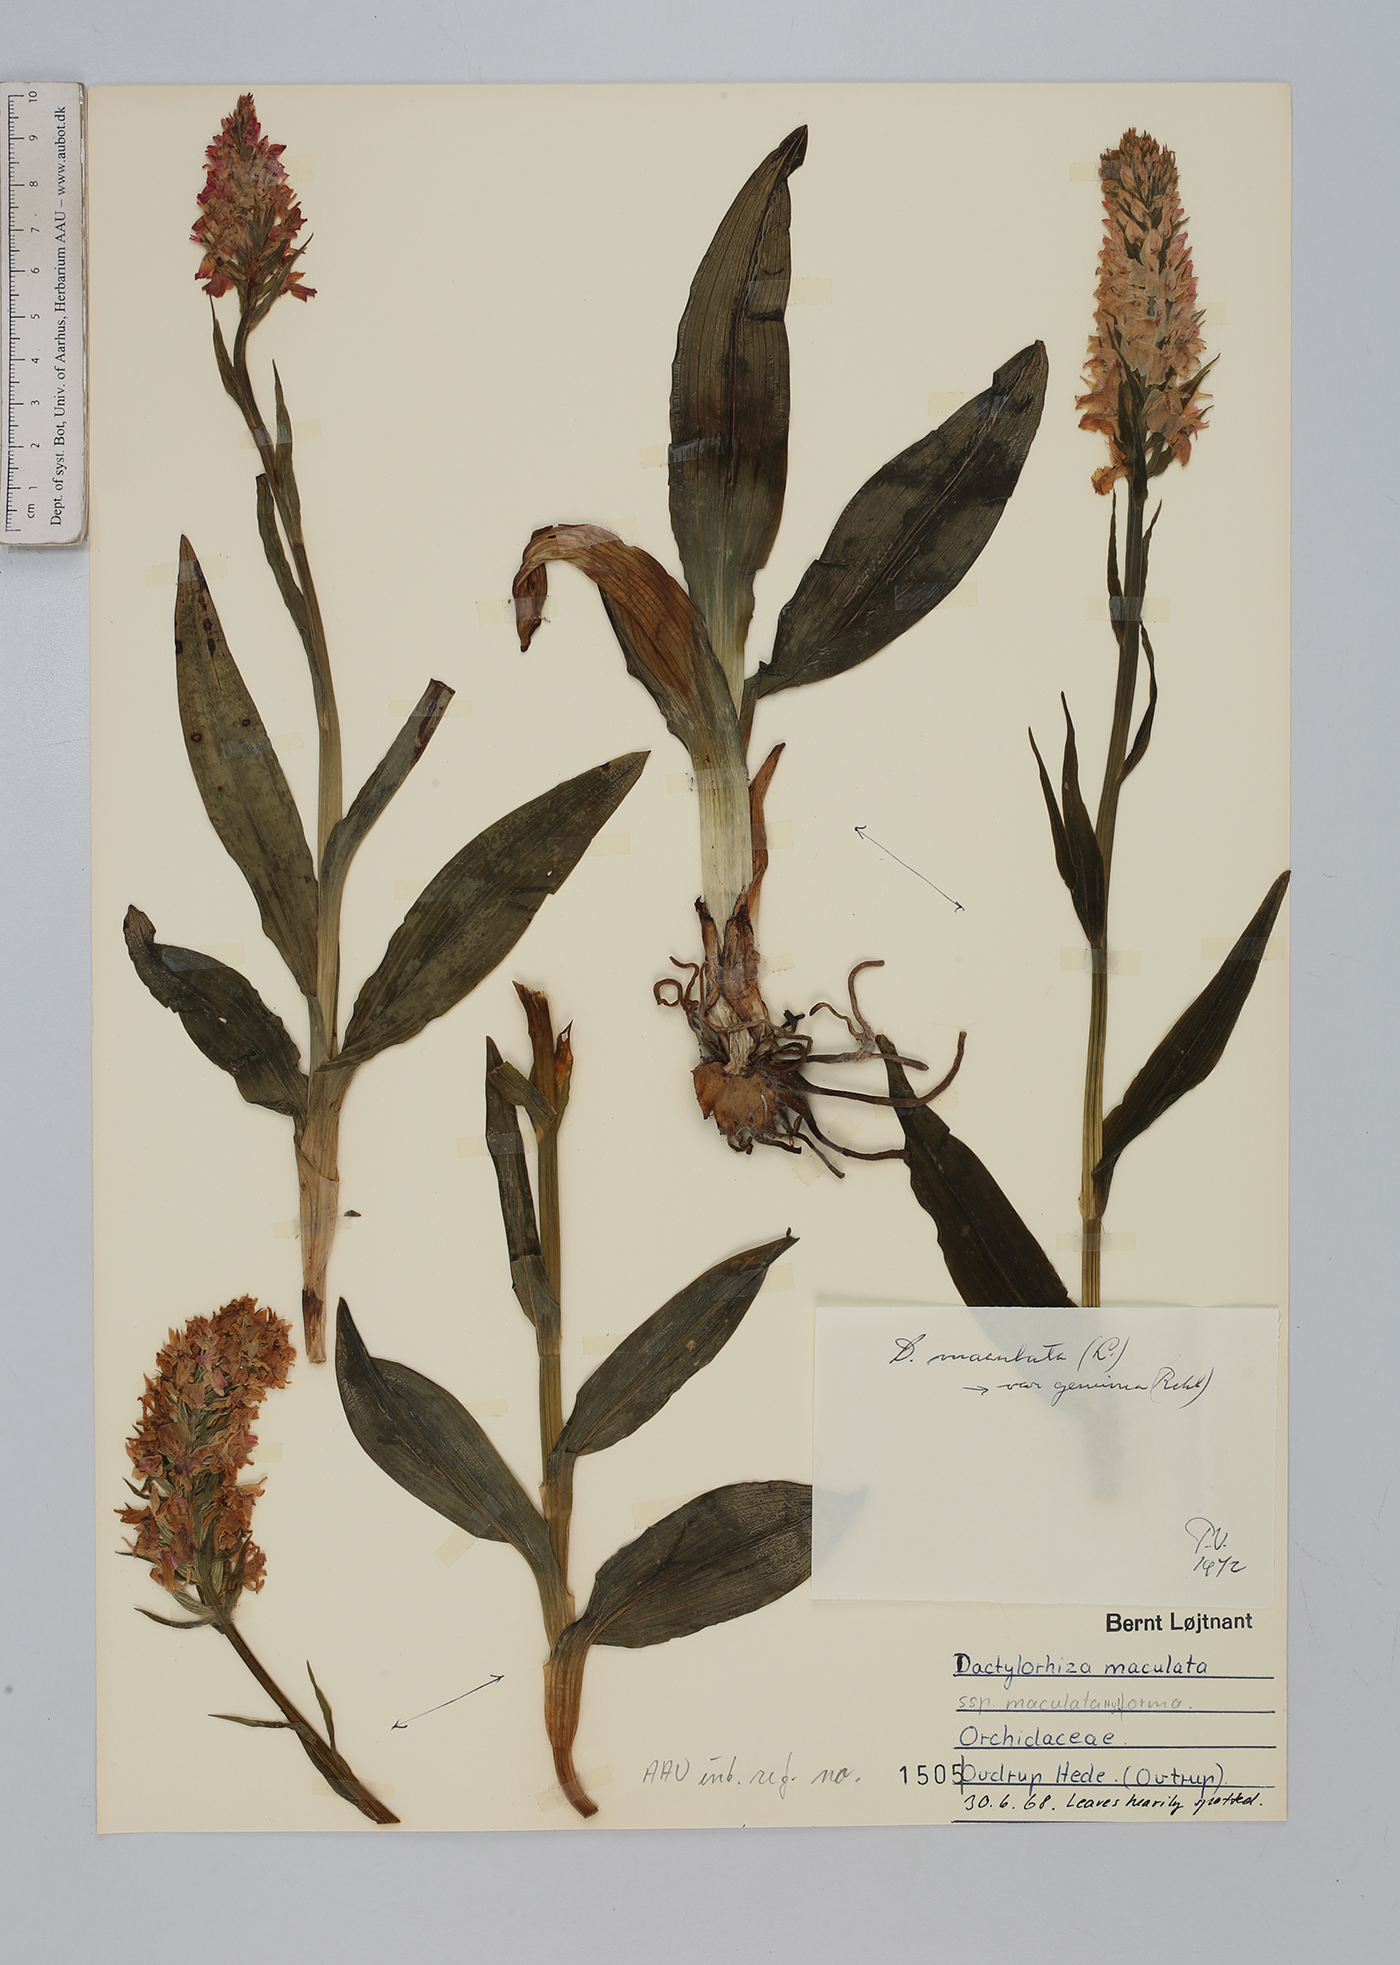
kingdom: Plantae
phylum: Tracheophyta
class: Liliopsida
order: Asparagales
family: Orchidaceae
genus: Dactylorhiza
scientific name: Dactylorhiza maculata
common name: Heath spotted-orchid
